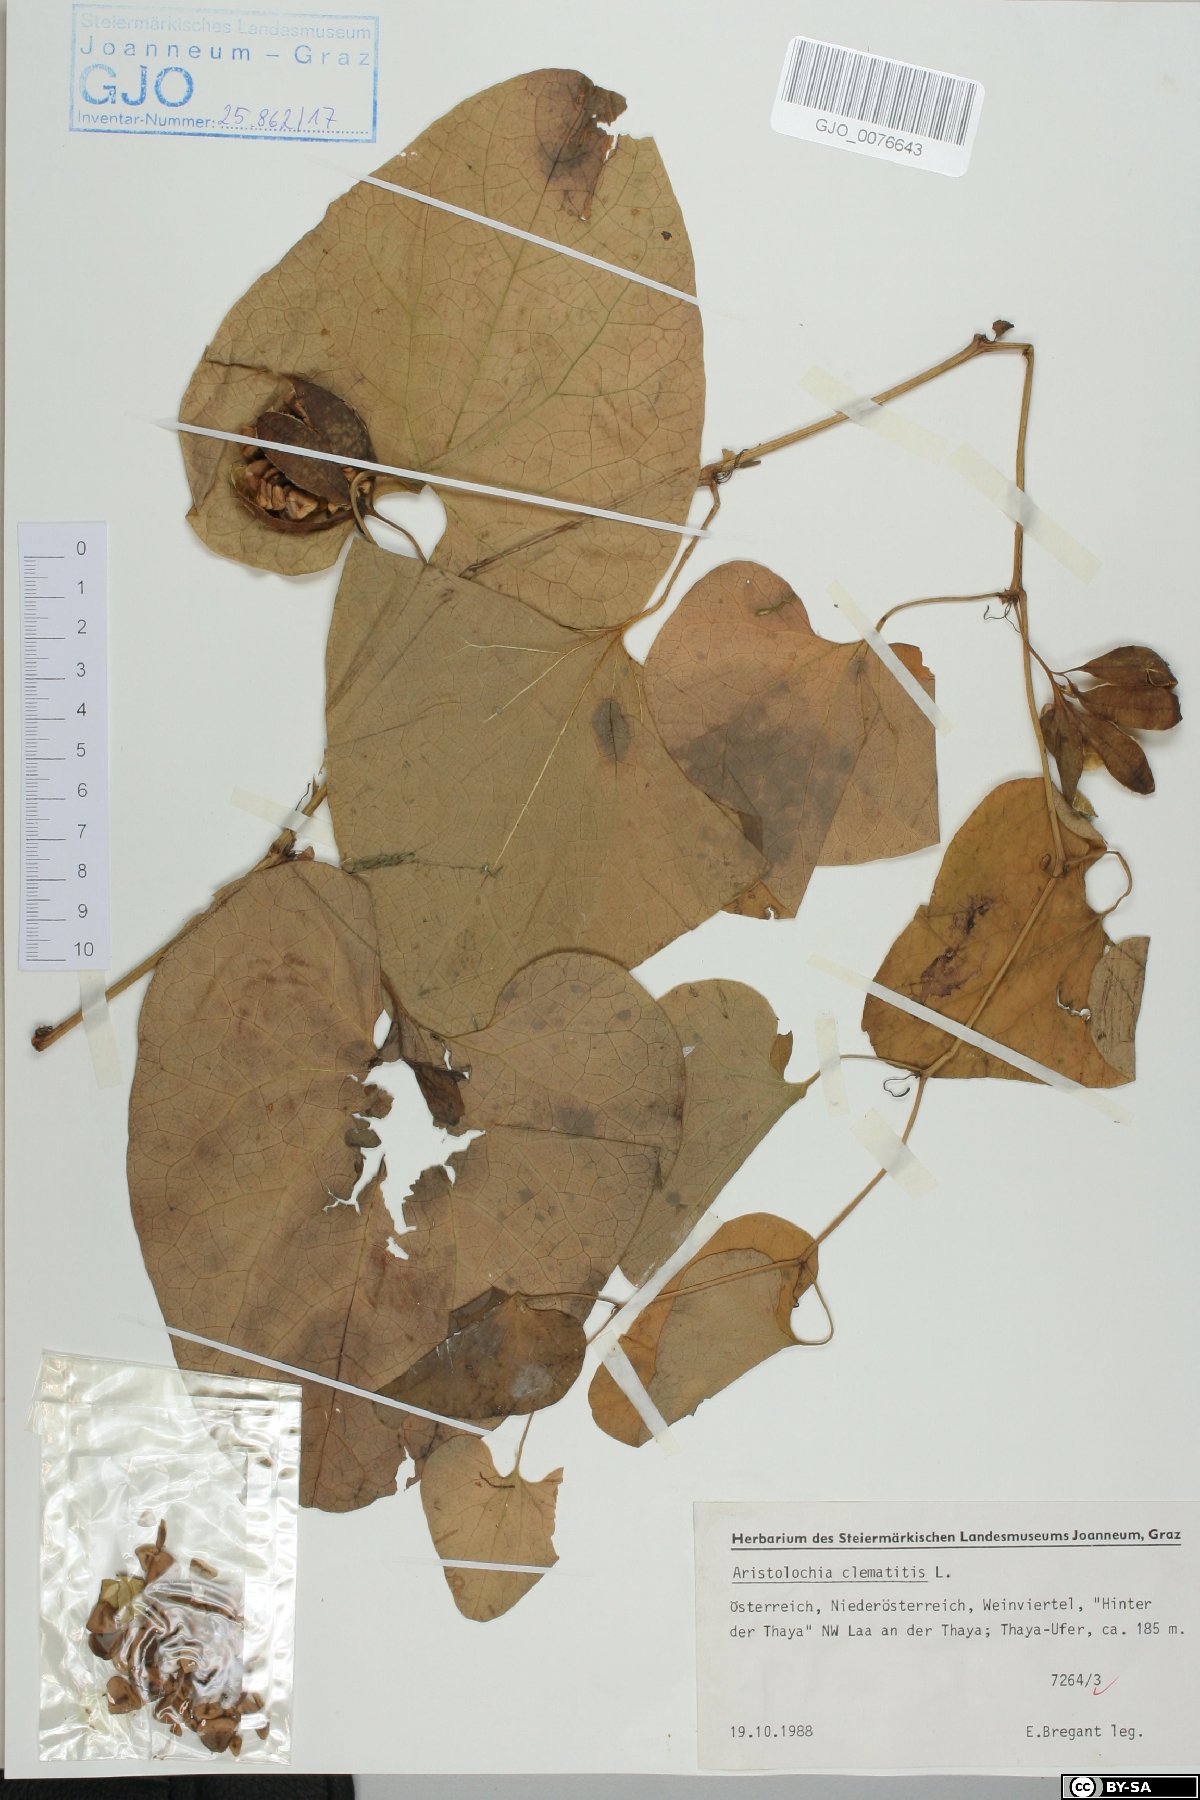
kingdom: Plantae
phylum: Tracheophyta
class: Magnoliopsida
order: Piperales
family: Aristolochiaceae
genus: Aristolochia
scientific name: Aristolochia clematitis
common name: Birthwort
